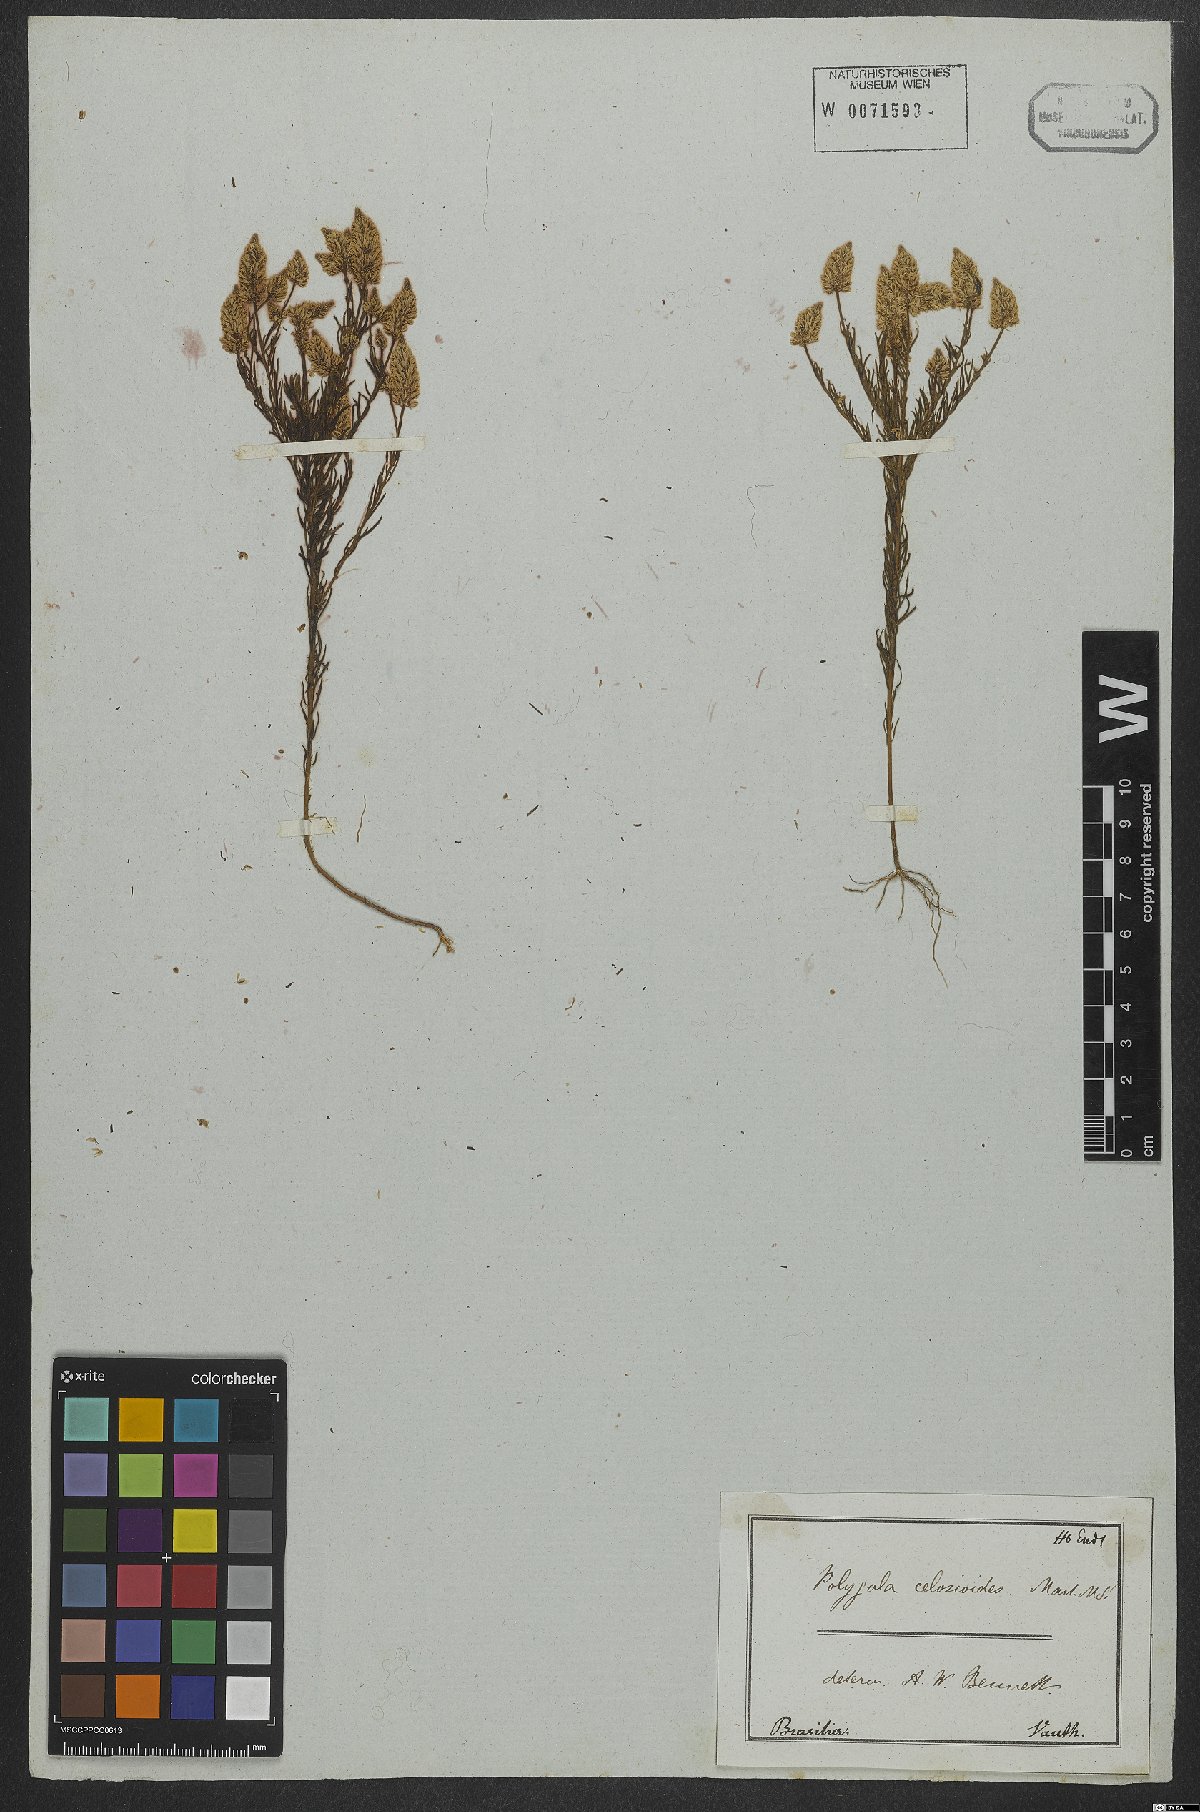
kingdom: Plantae
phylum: Tracheophyta
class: Magnoliopsida
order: Fabales
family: Polygalaceae
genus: Polygala
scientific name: Polygala celosioides
